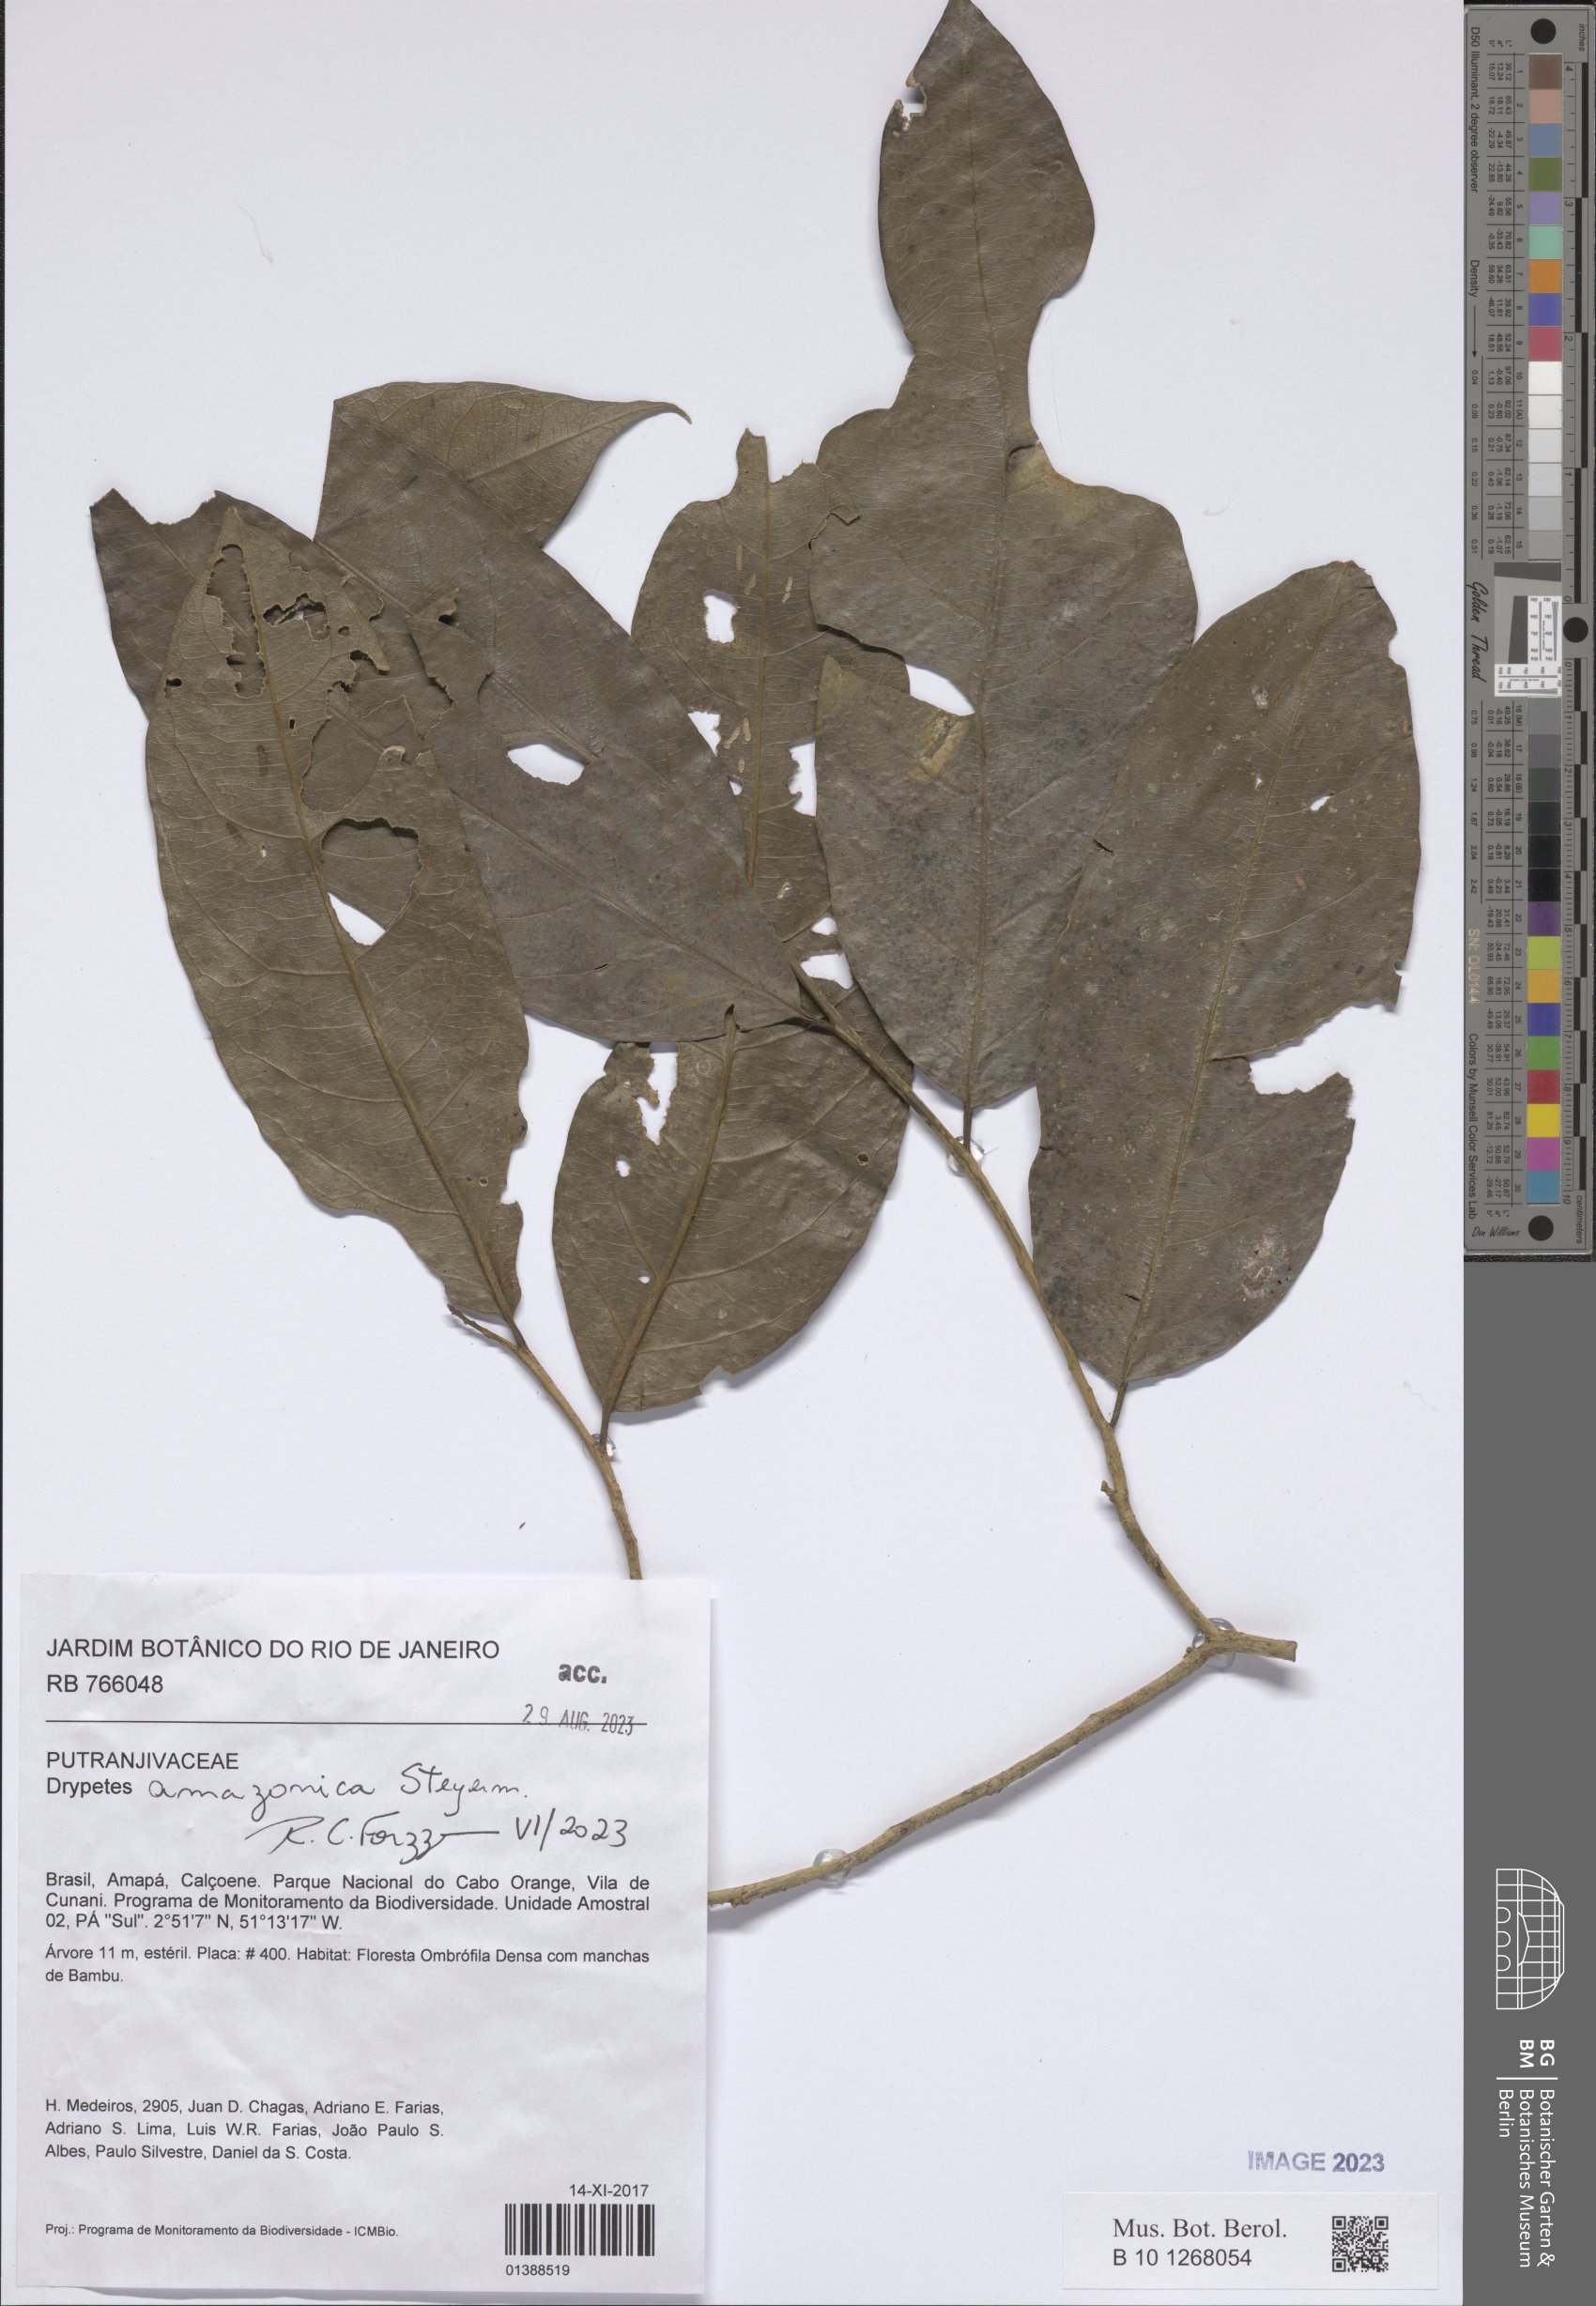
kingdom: Plantae
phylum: Tracheophyta
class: Magnoliopsida
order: Malpighiales
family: Putranjivaceae
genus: Drypetes
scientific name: Drypetes amazonica
